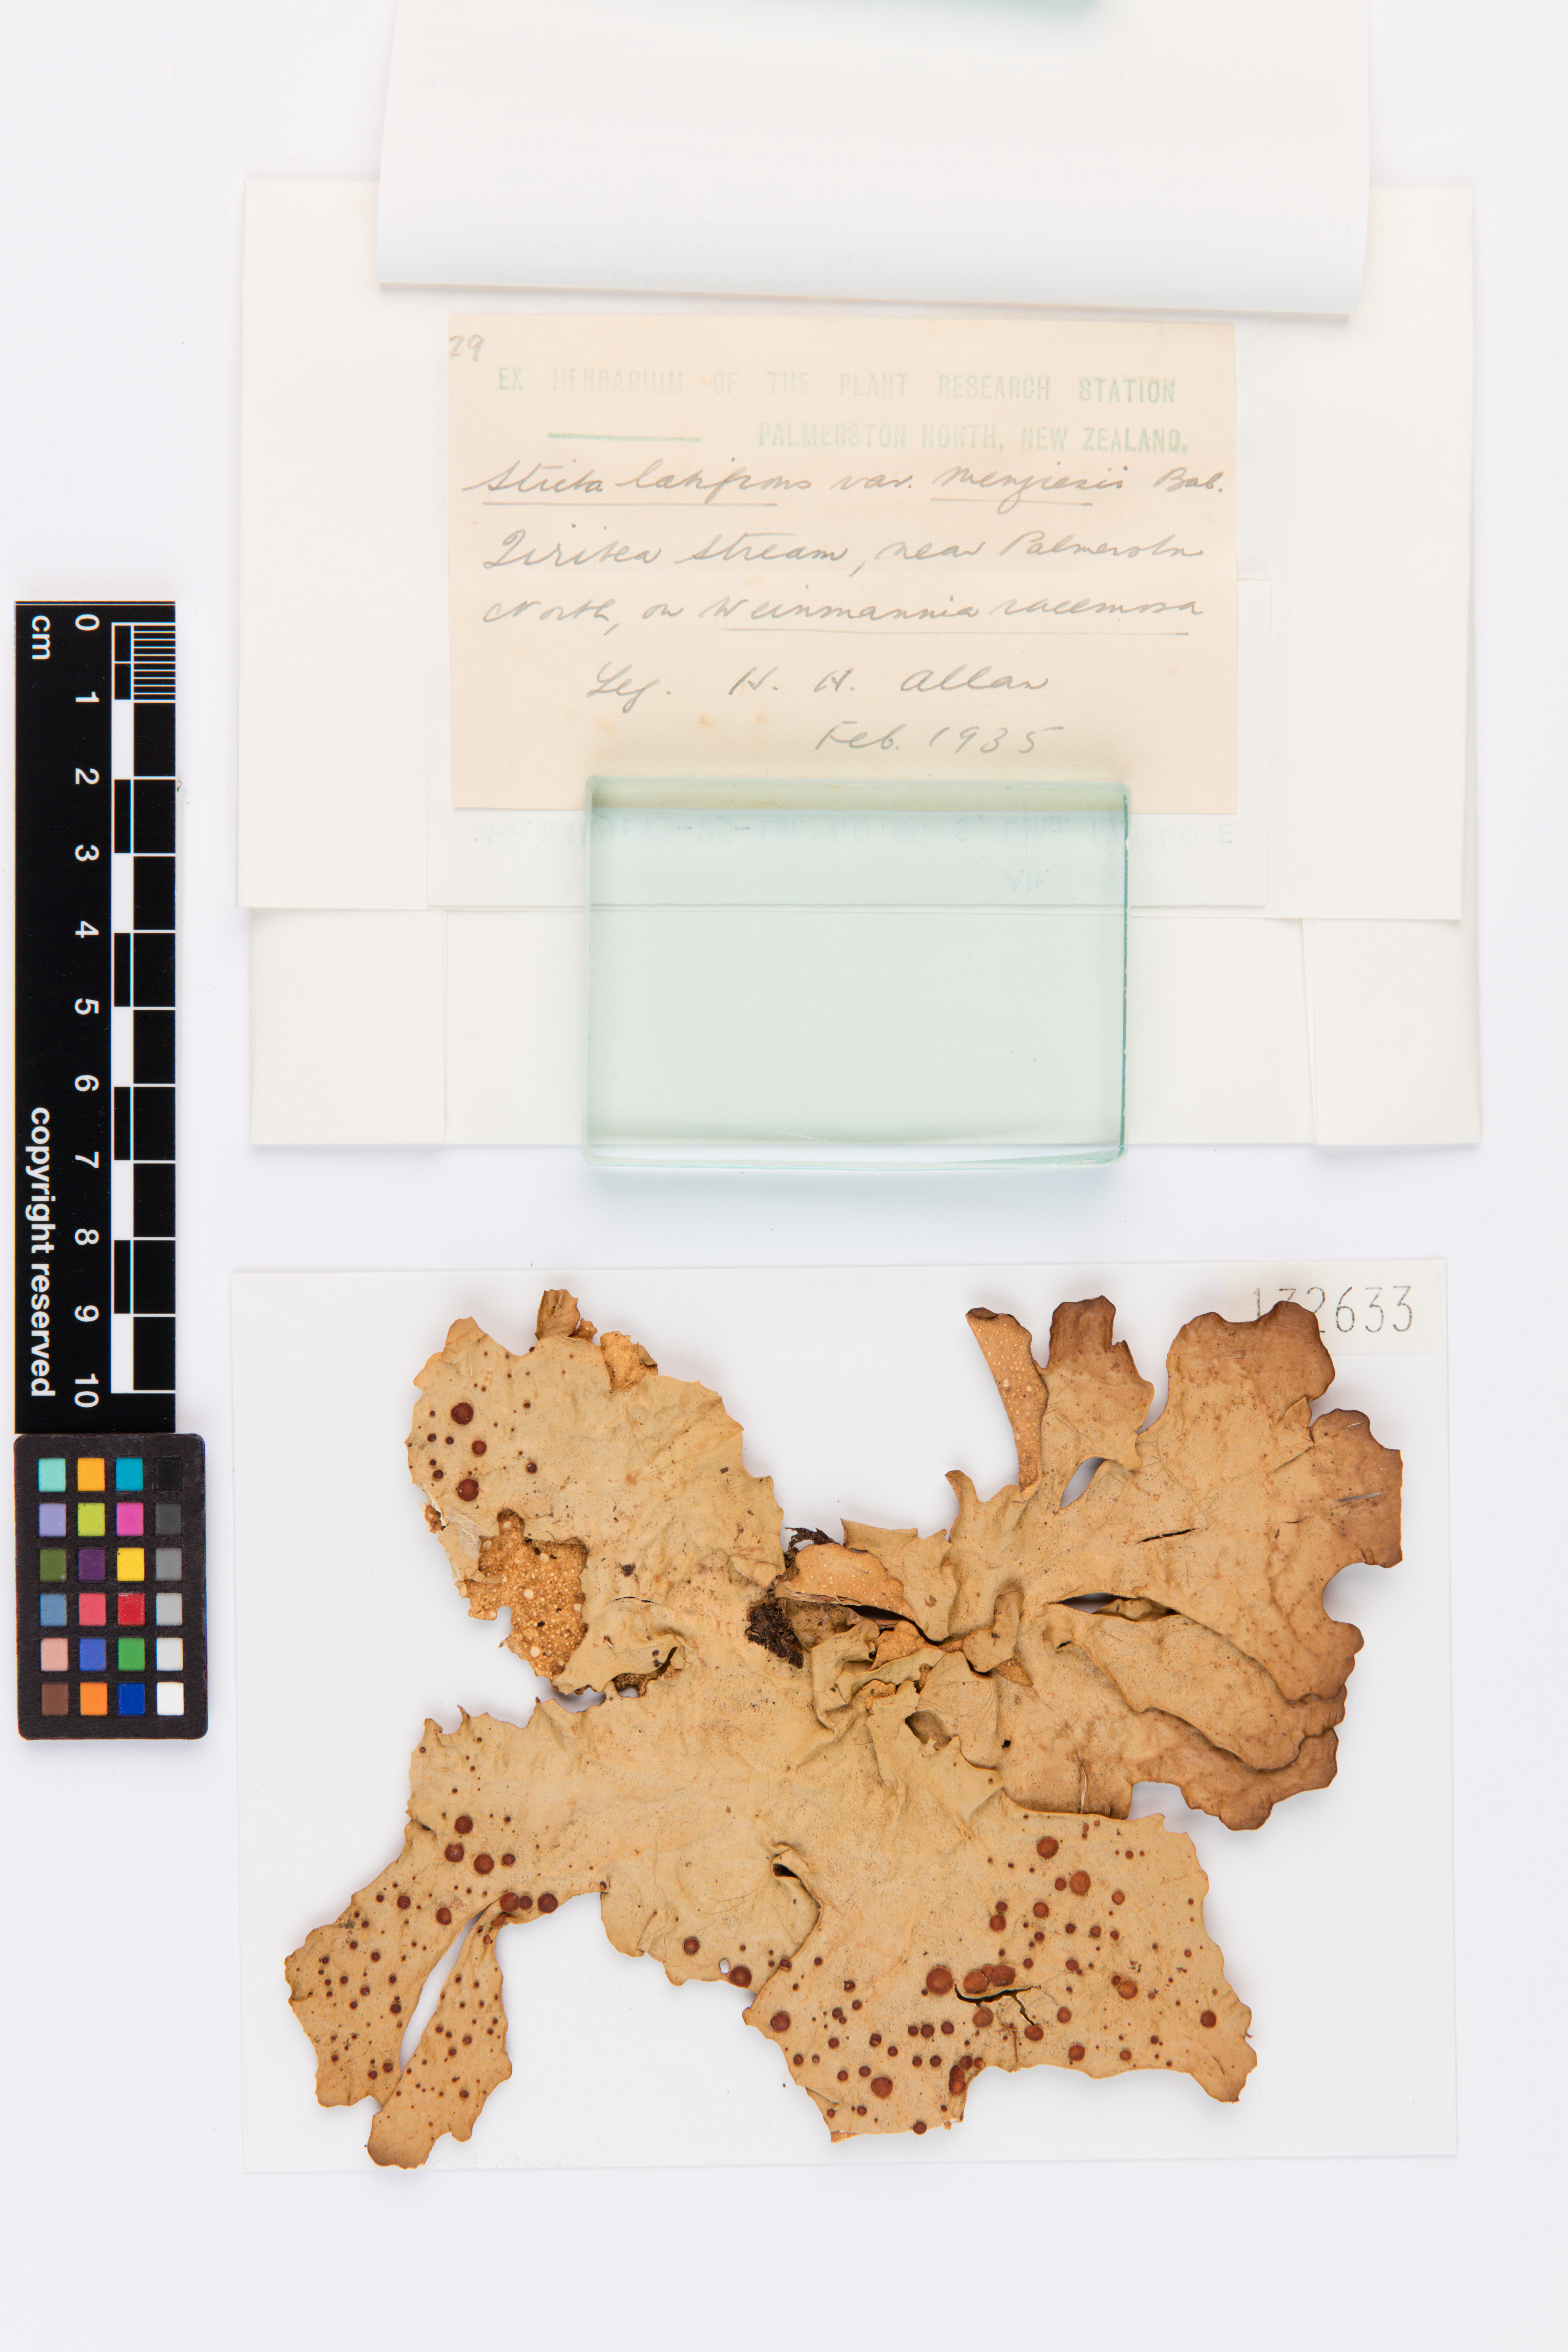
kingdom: Fungi
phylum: Ascomycota
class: Lecanoromycetes
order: Peltigerales
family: Lobariaceae
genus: Sticta
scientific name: Sticta latifrons
